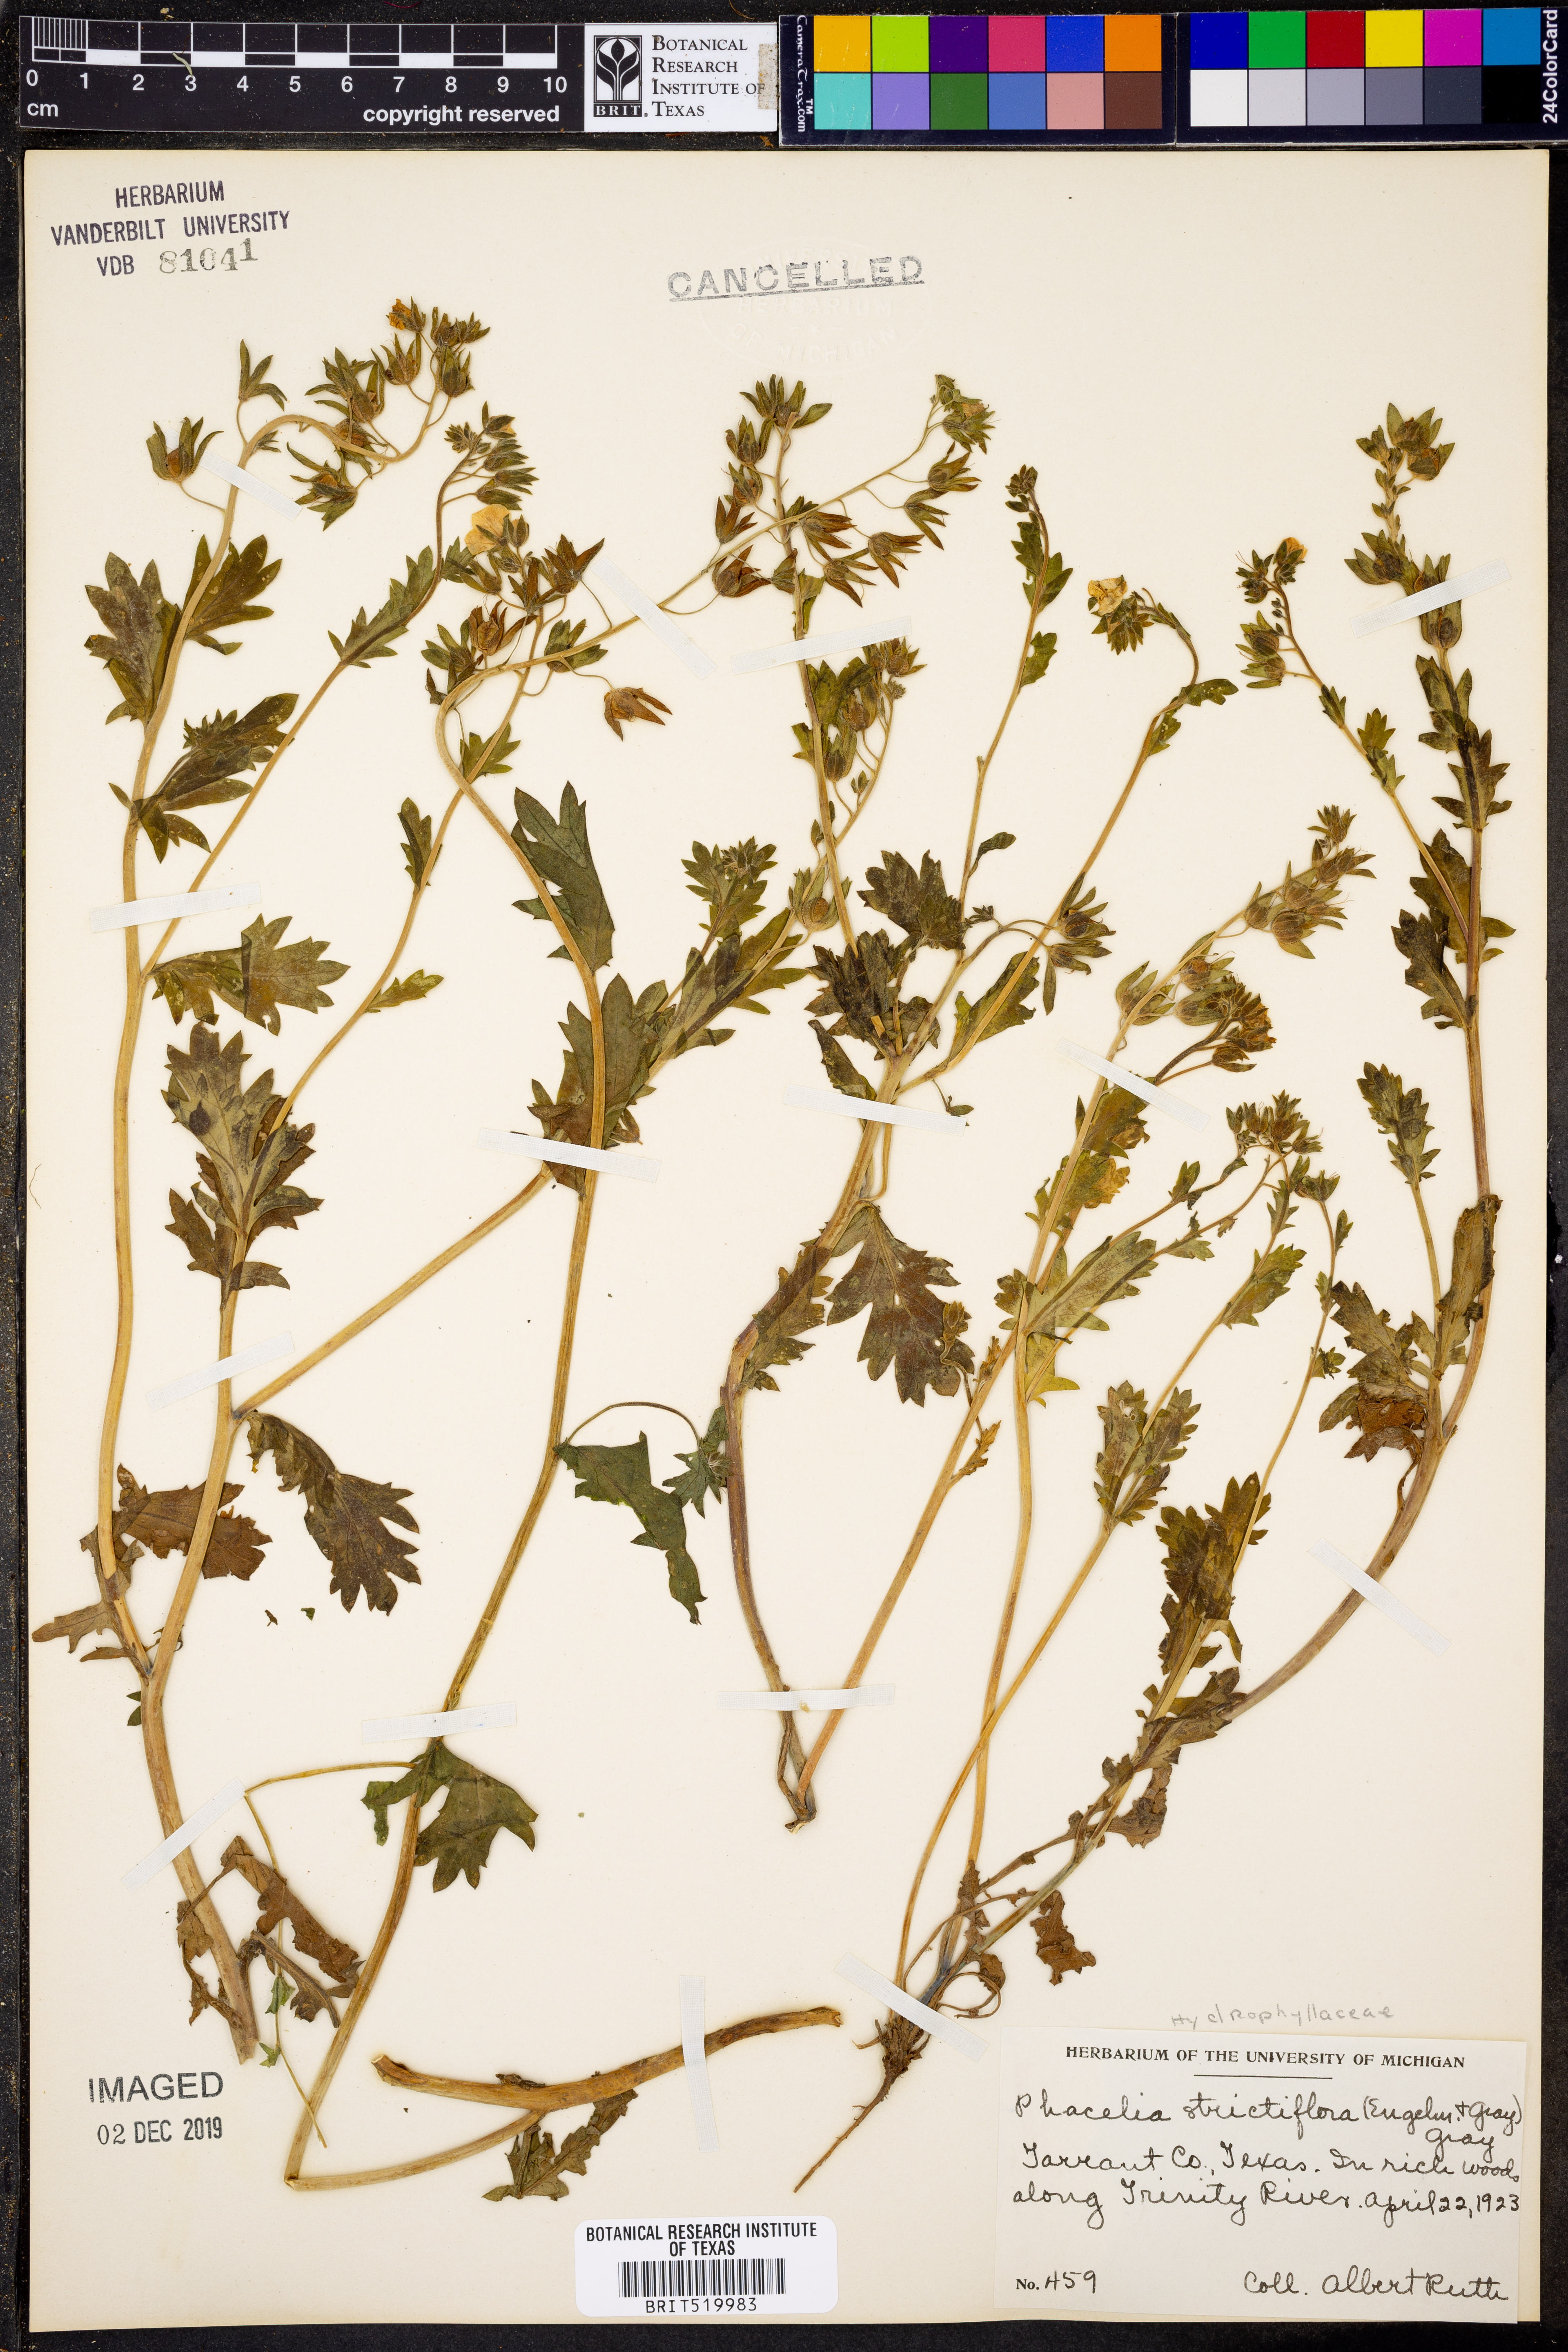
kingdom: Plantae
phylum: Tracheophyta
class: Magnoliopsida
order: Boraginales
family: Hydrophyllaceae
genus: Phacelia
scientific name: Phacelia strictiflora
